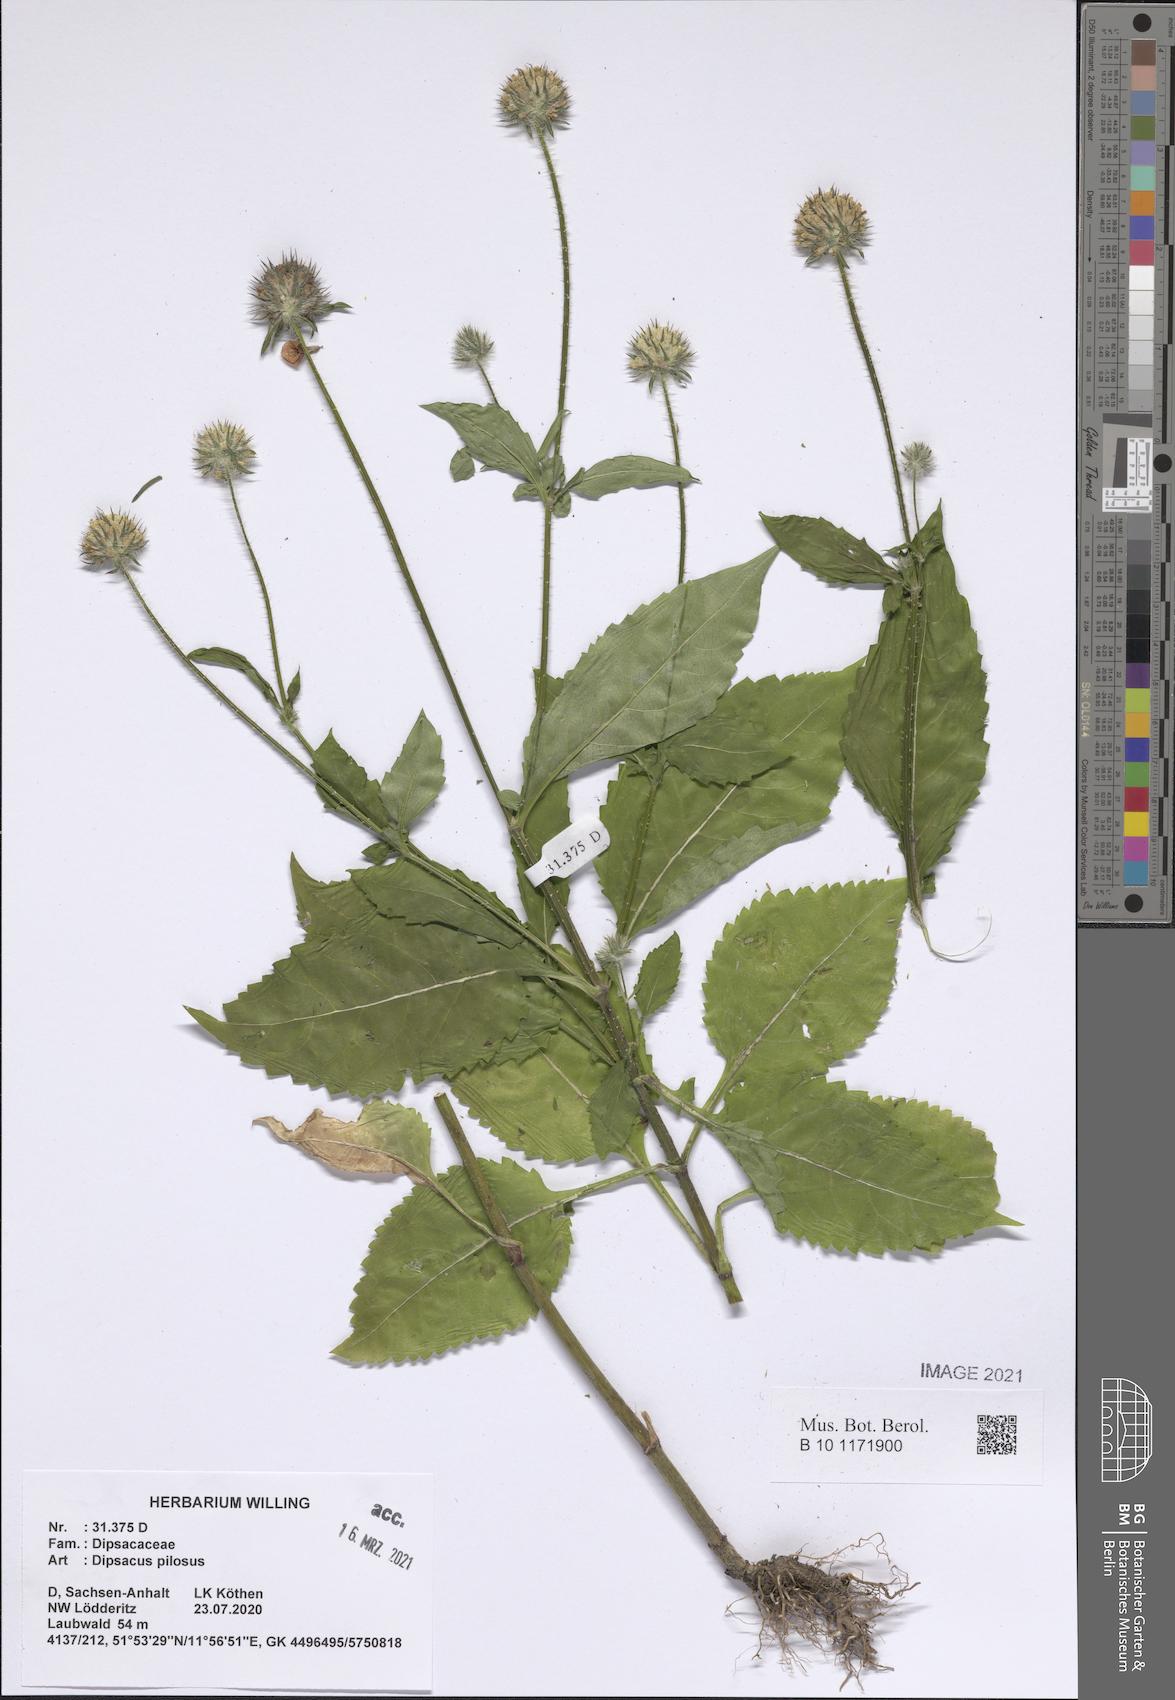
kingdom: Plantae
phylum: Tracheophyta
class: Magnoliopsida
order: Dipsacales
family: Caprifoliaceae
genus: Dipsacus
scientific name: Dipsacus pilosus
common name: Small teasel
